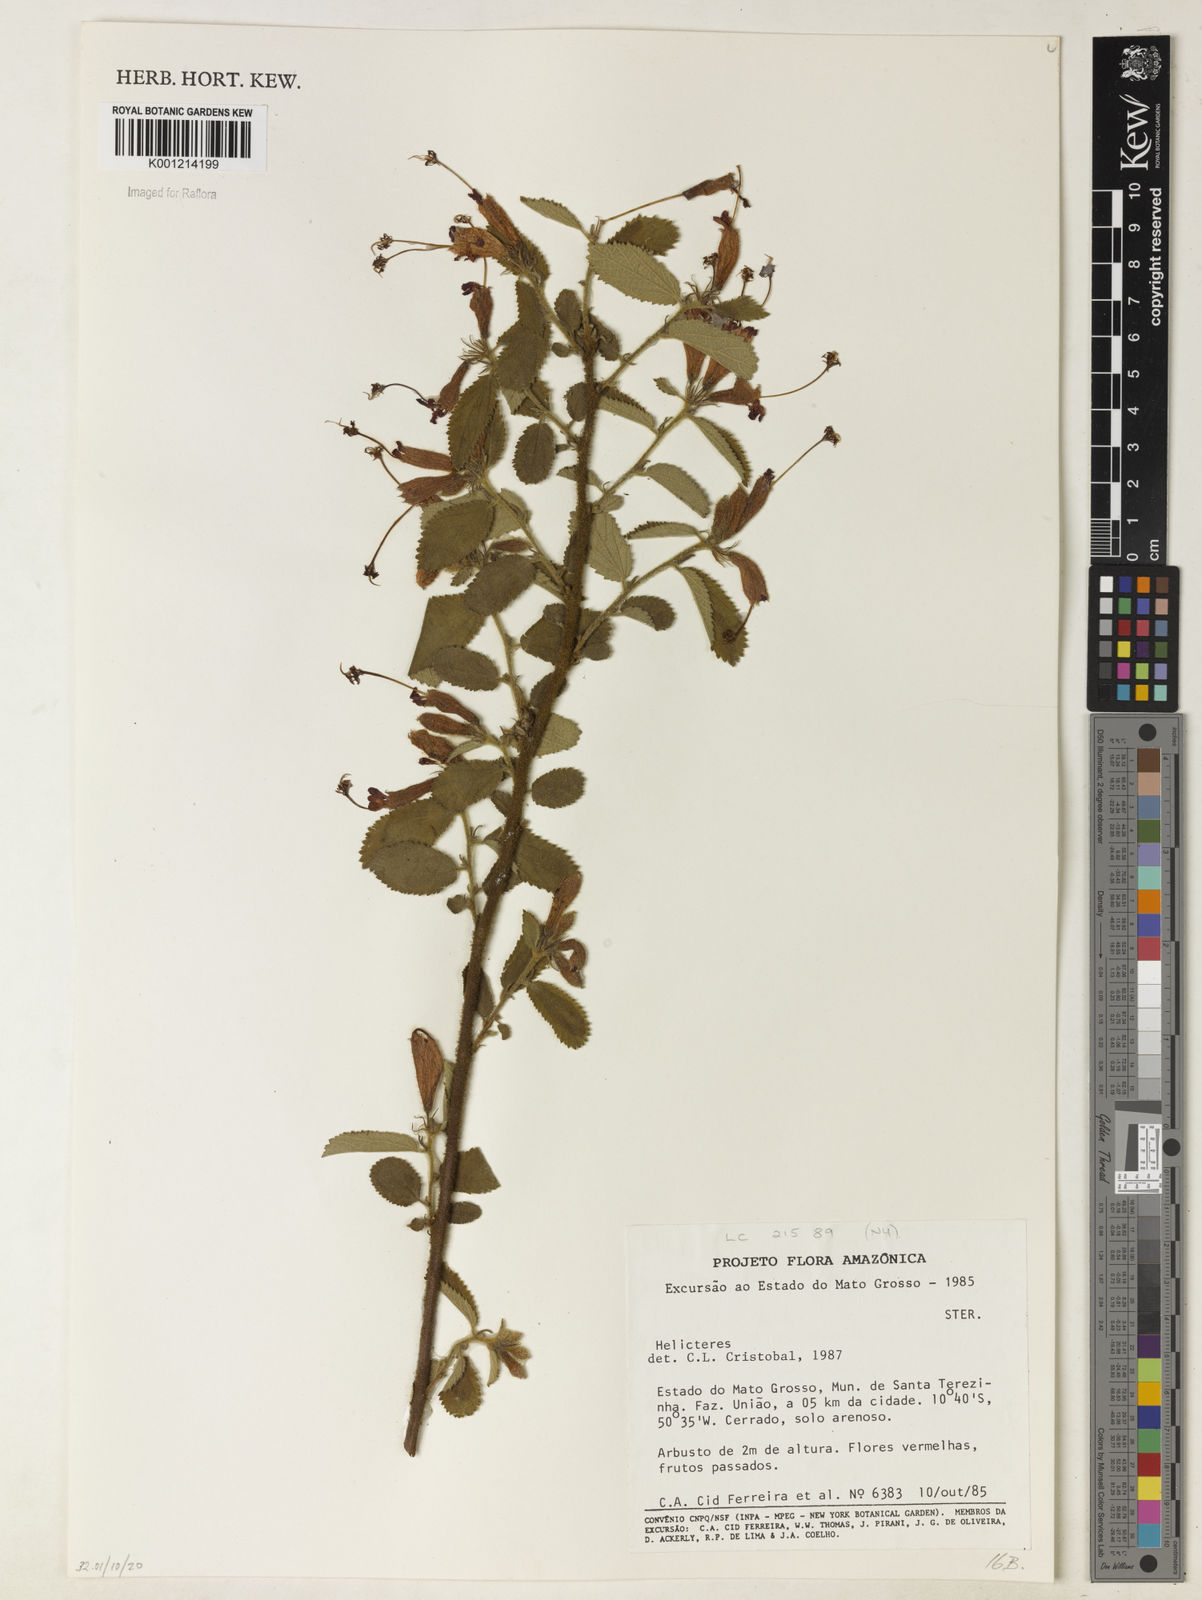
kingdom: Plantae
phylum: Tracheophyta
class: Magnoliopsida
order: Malvales
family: Malvaceae
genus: Helicteres
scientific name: Helicteres aspera
